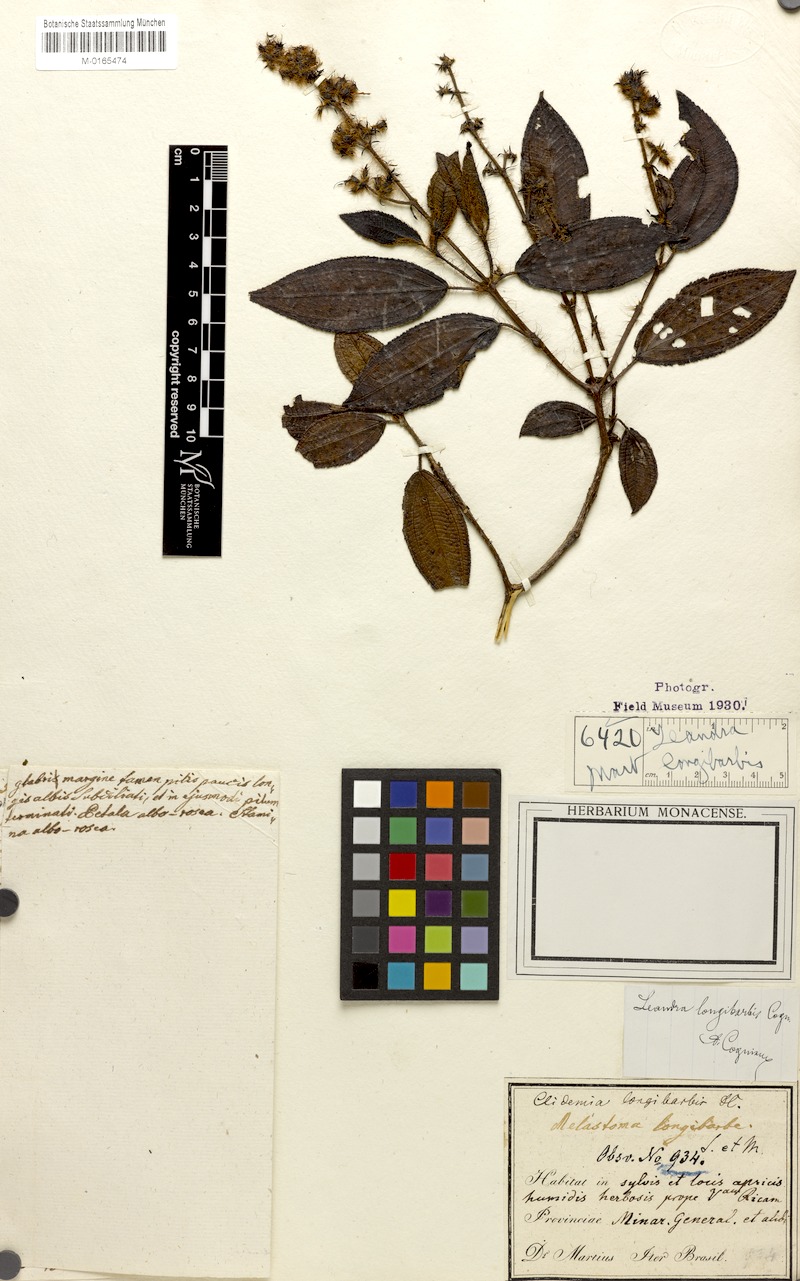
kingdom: Plantae
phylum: Tracheophyta
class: Magnoliopsida
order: Myrtales
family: Melastomataceae
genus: Miconia
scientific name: Miconia longibarbis
